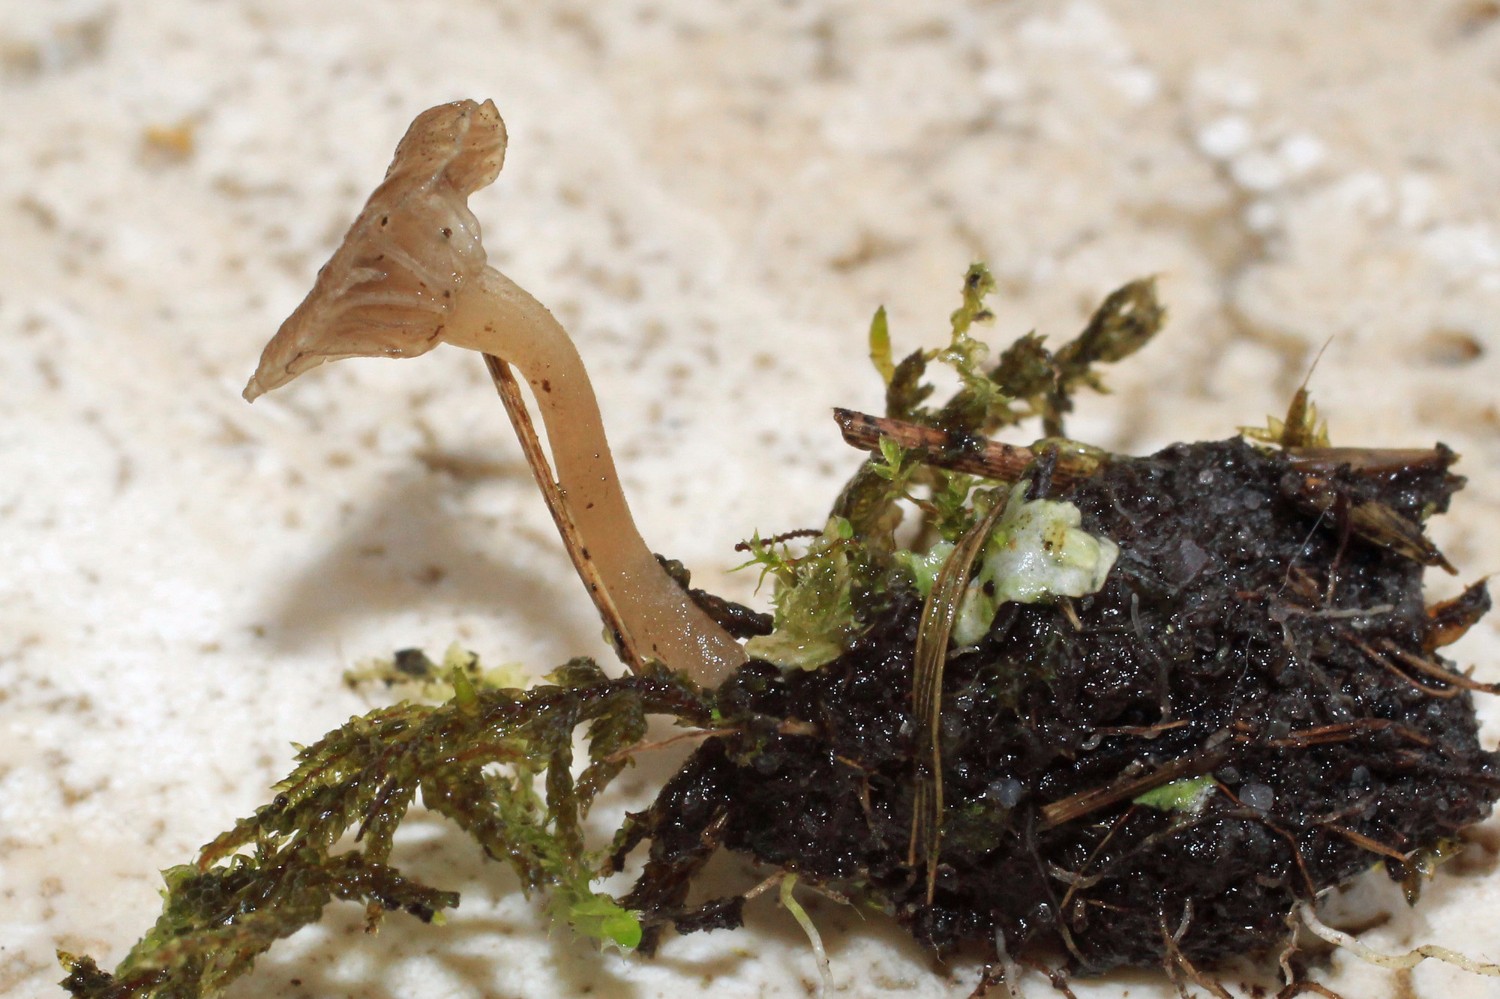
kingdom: Fungi
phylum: Basidiomycota
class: Agaricomycetes
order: Agaricales
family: Hygrophoraceae
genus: Arrhenia
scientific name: Arrhenia peltigerina
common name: skjoldlav-fontænehat
